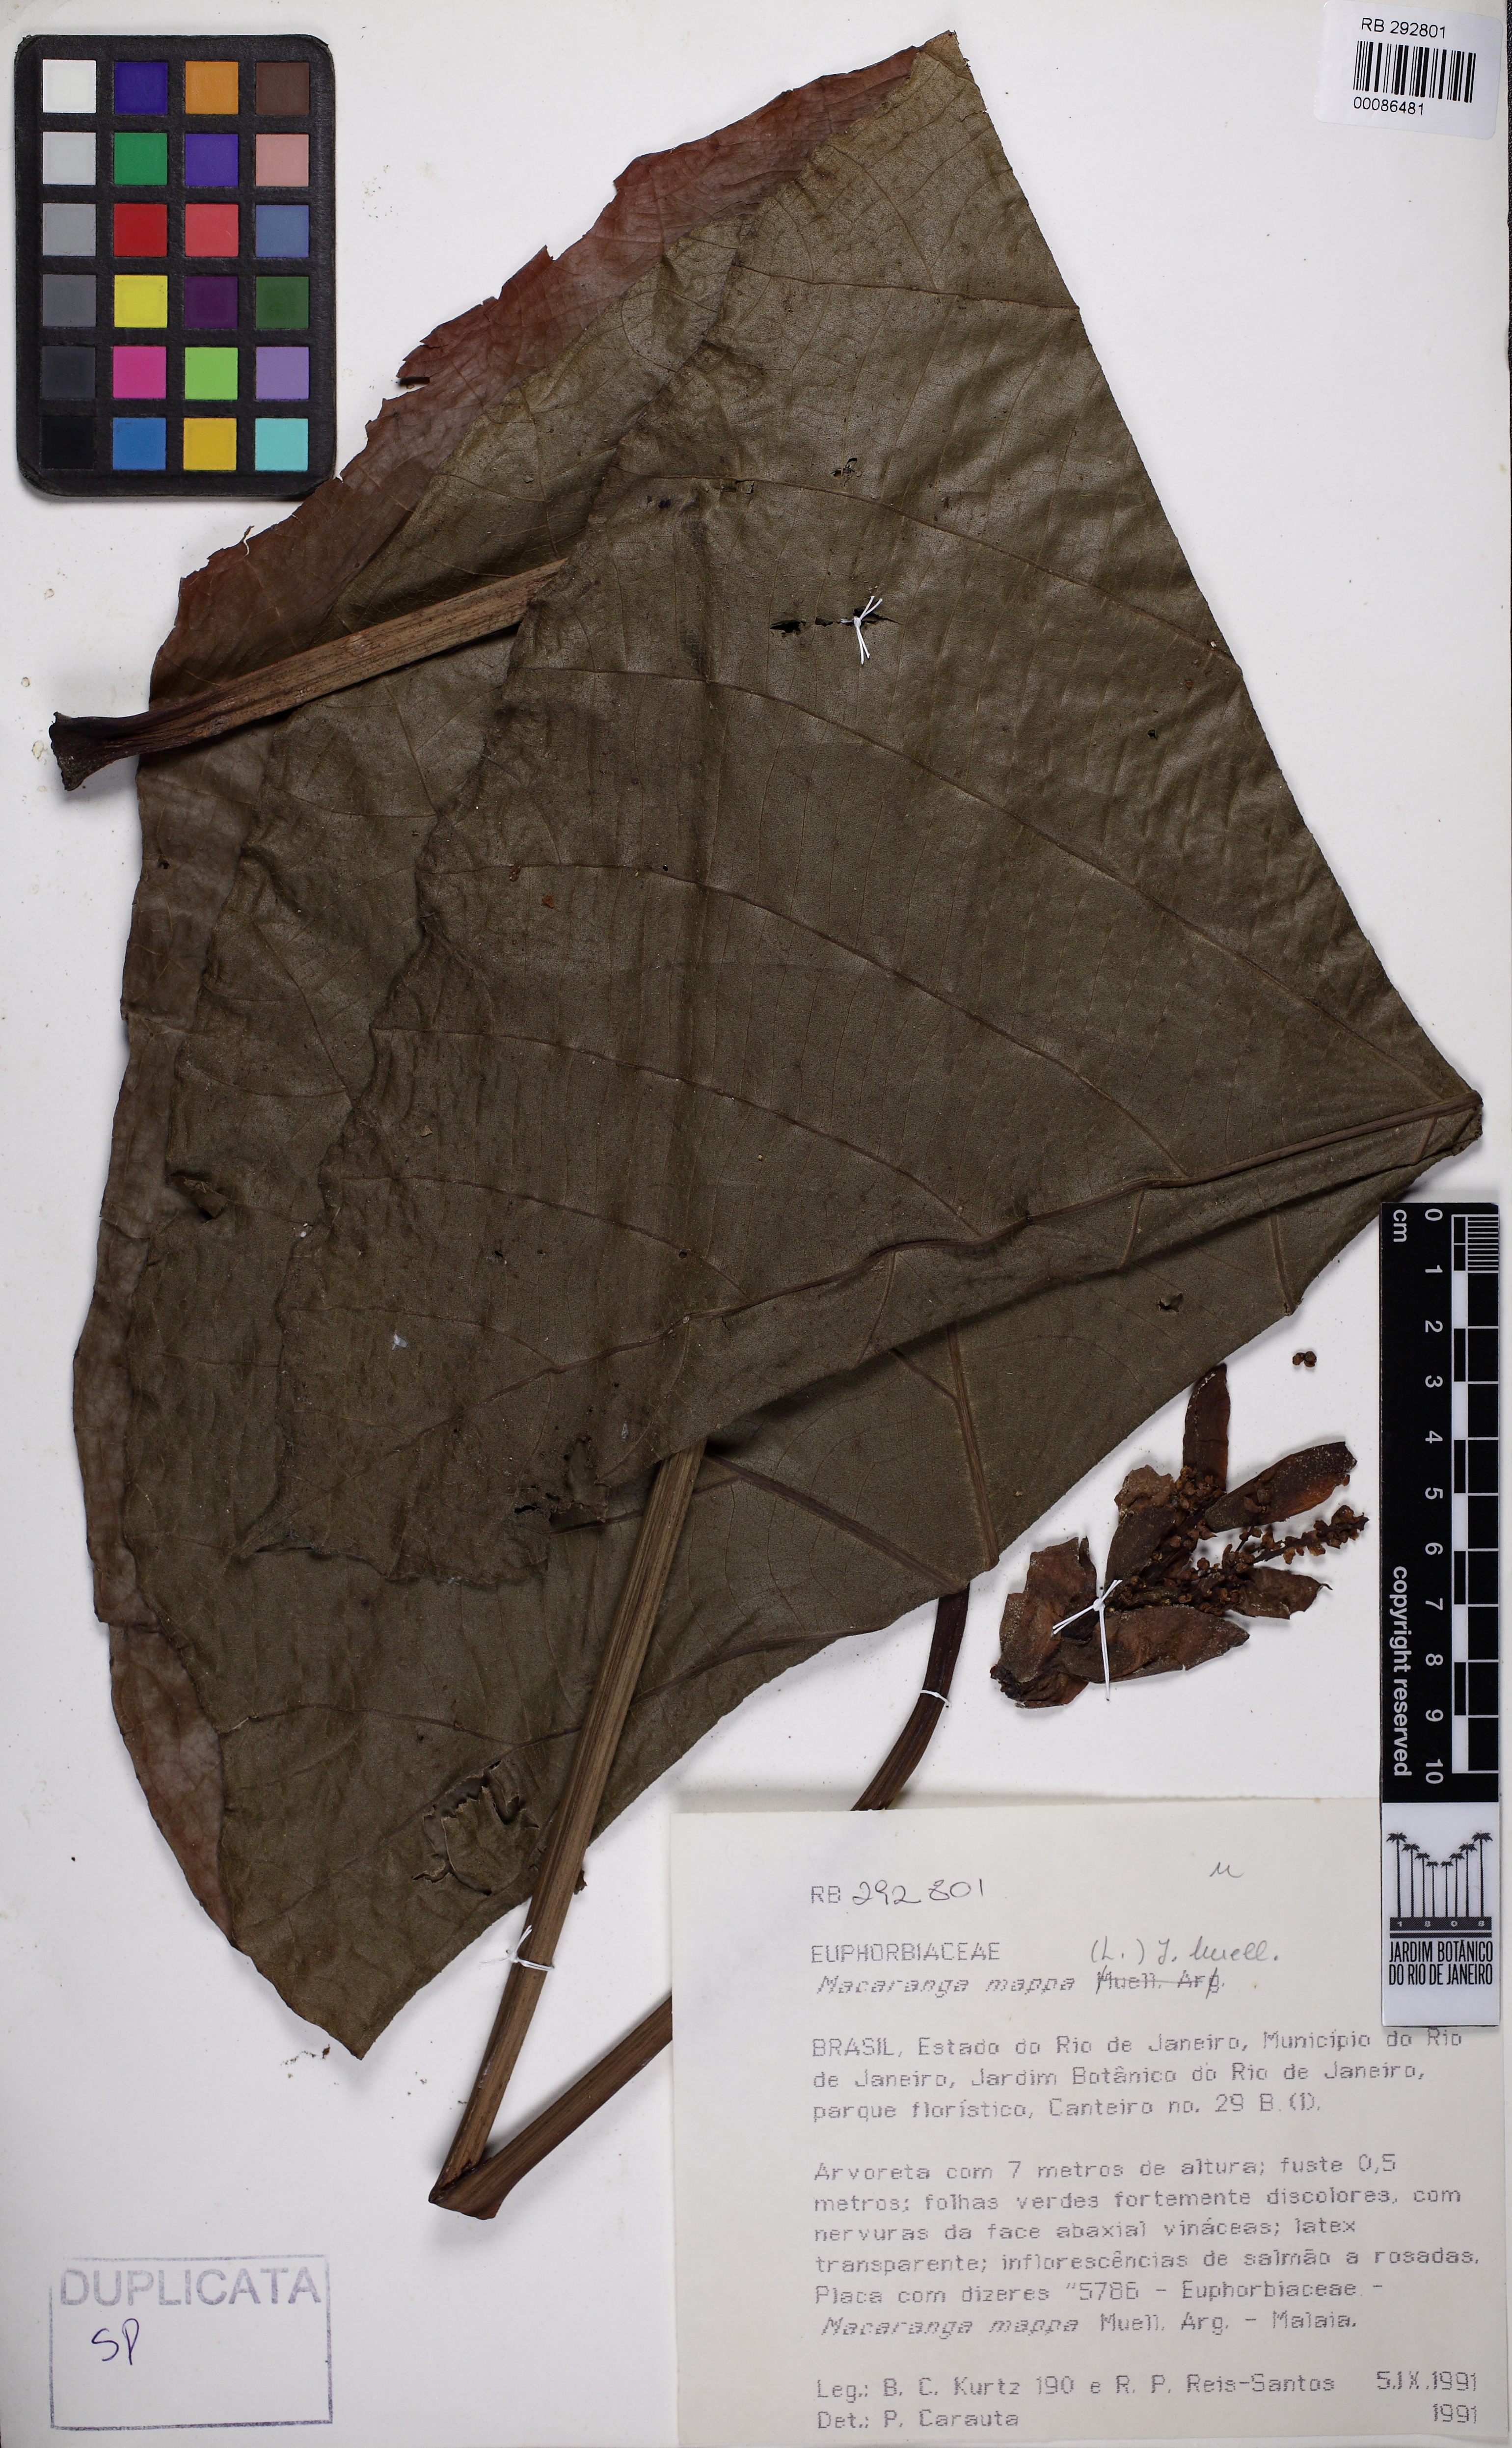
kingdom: Plantae
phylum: Tracheophyta
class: Magnoliopsida
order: Malpighiales
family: Euphorbiaceae
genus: Macaranga
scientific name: Macaranga mappa
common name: Pengua
